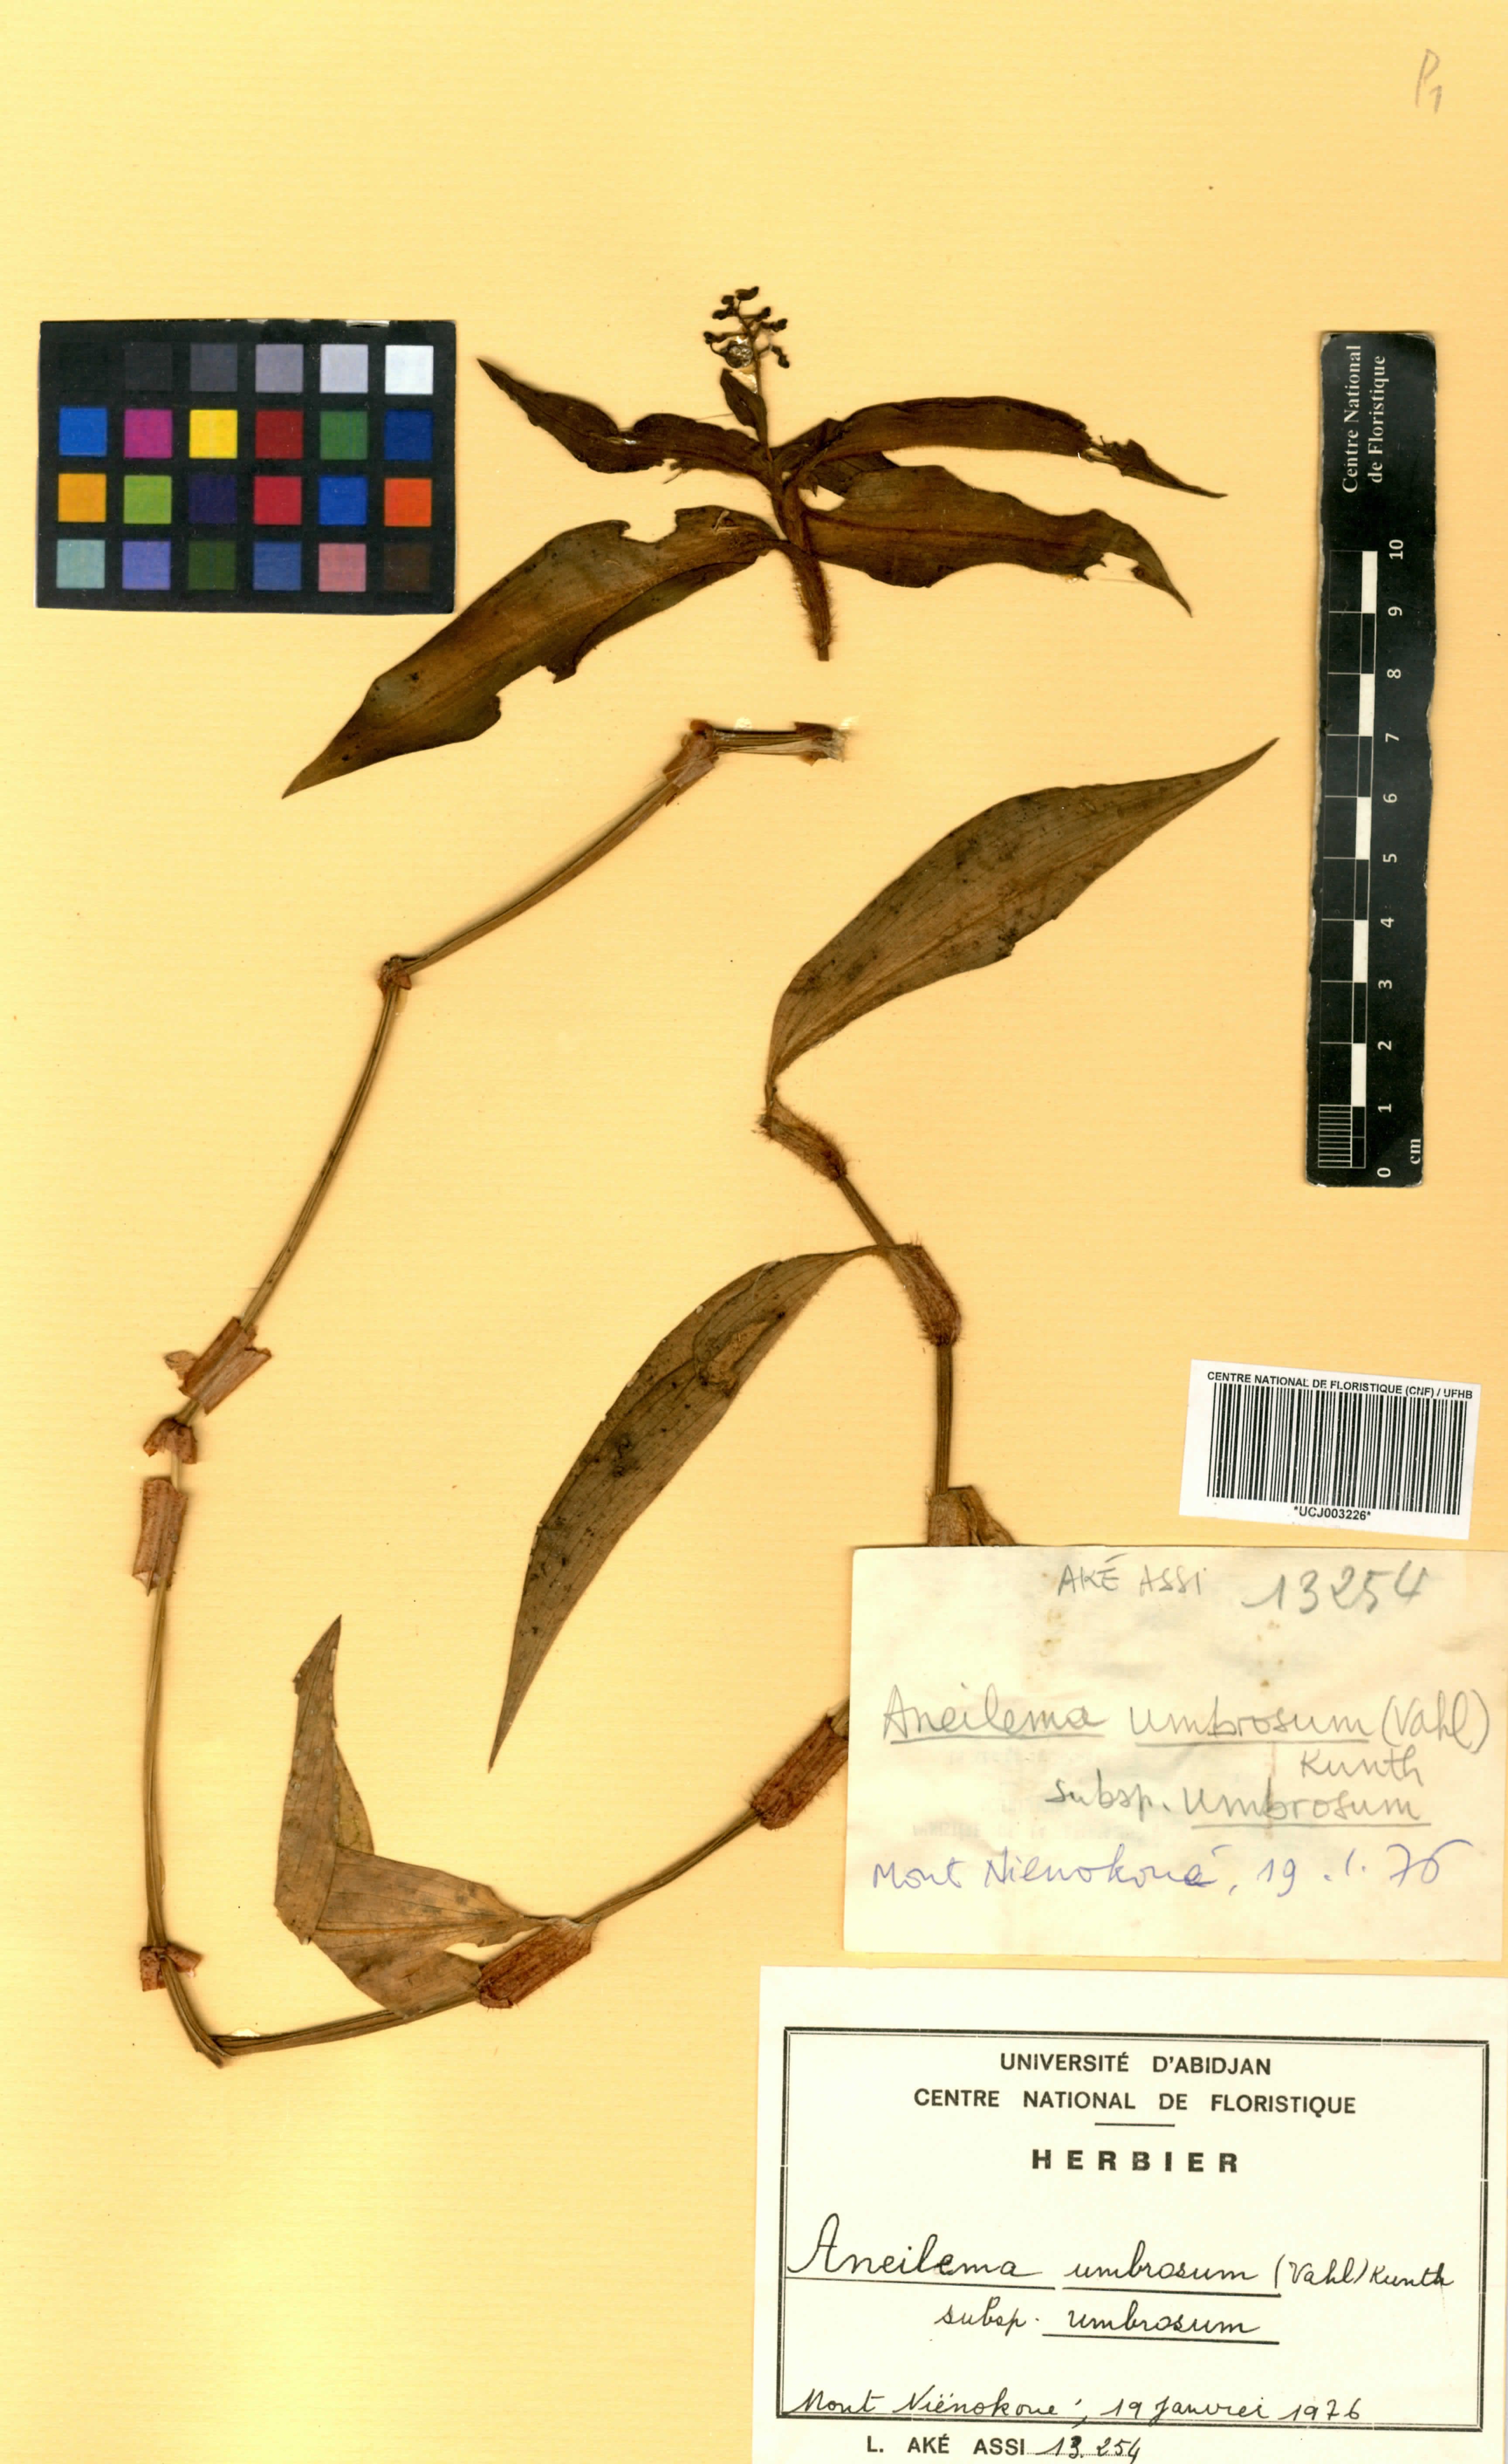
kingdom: Plantae
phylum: Tracheophyta
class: Liliopsida
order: Commelinales
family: Commelinaceae
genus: Aneilema
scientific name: Aneilema umbrosum
